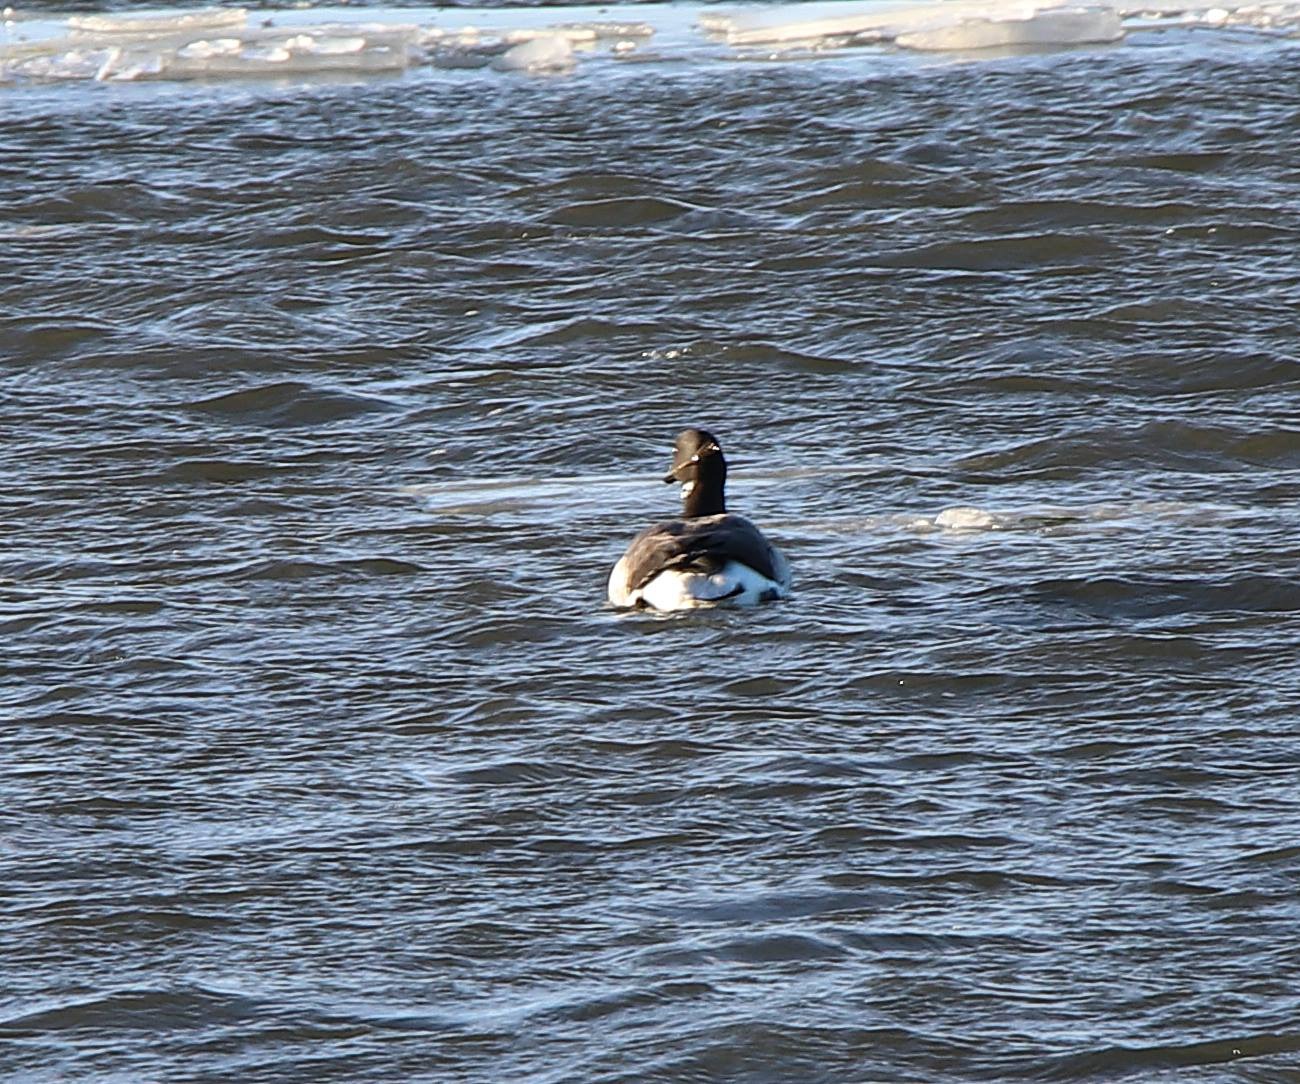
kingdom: Animalia
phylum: Chordata
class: Aves
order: Anseriformes
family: Anatidae
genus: Branta
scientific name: Branta bernicla
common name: Knortegås
